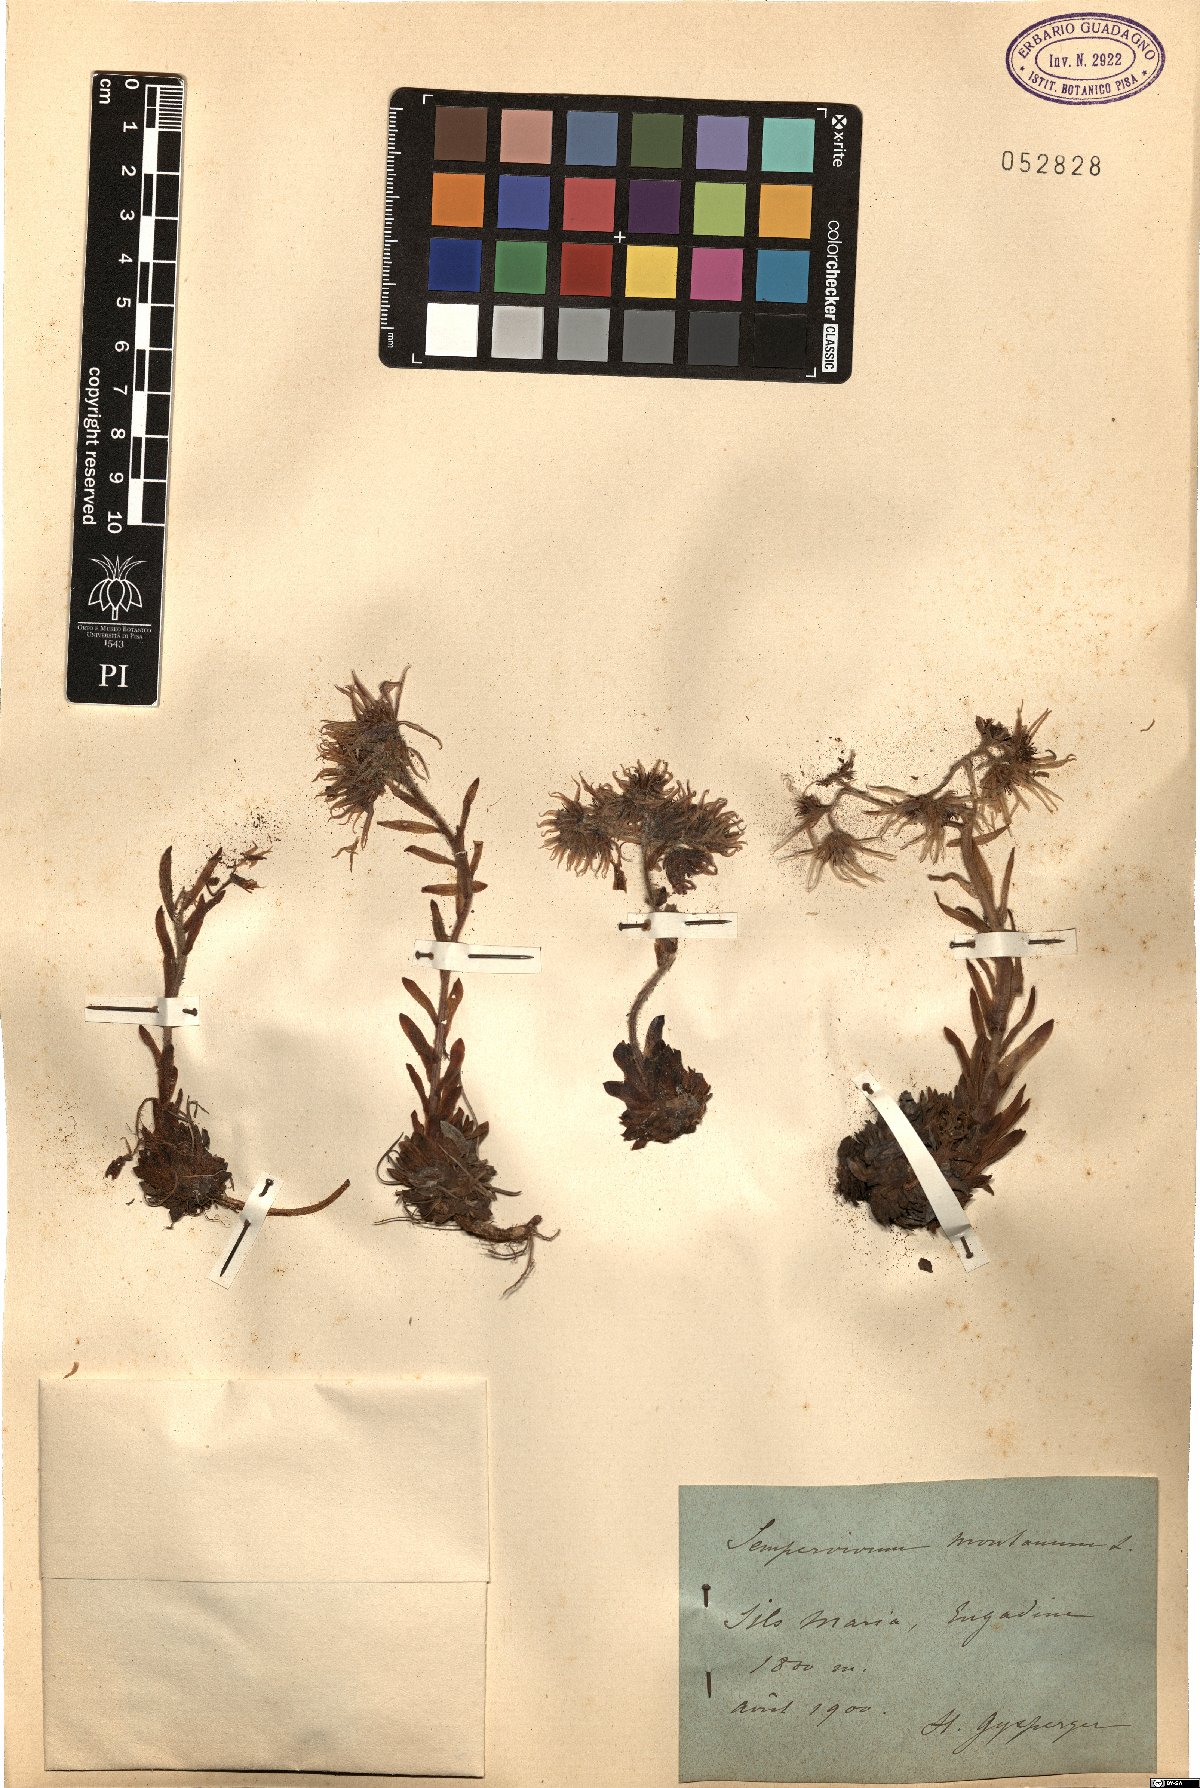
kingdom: Plantae
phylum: Tracheophyta
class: Magnoliopsida
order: Saxifragales
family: Crassulaceae
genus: Sempervivum
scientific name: Sempervivum montanum
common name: Mountain house-leek
